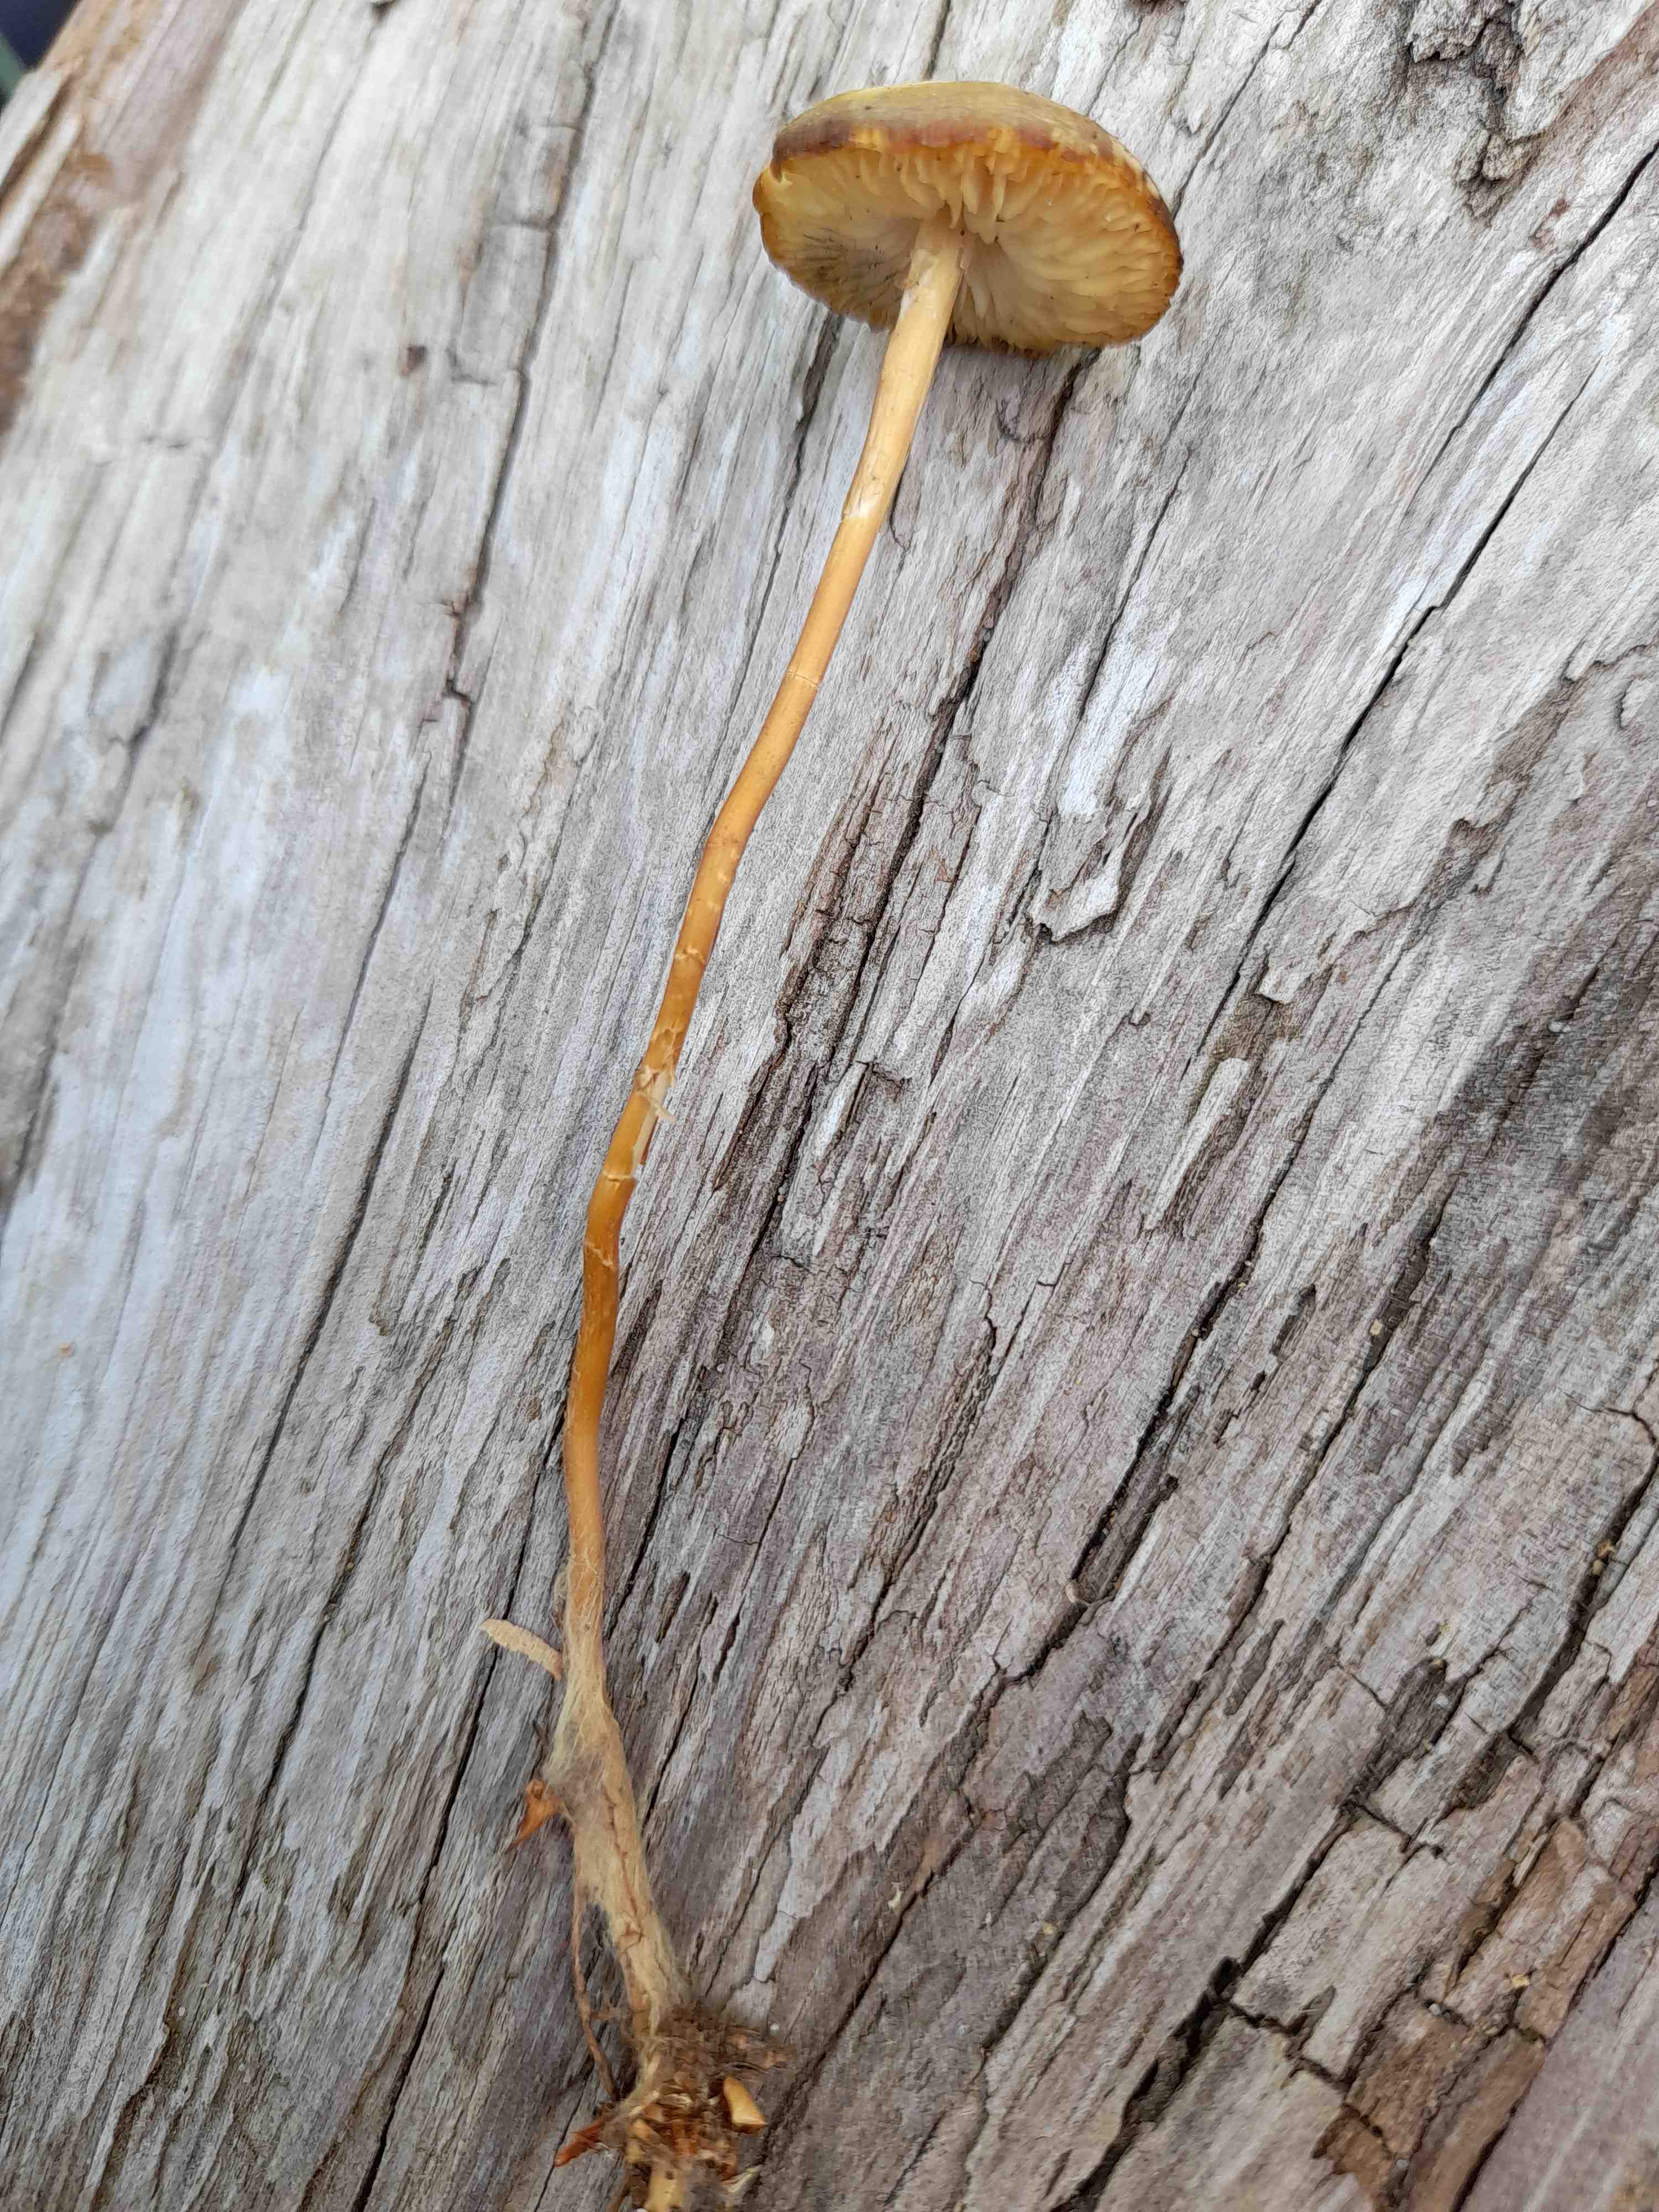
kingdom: Fungi
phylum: Basidiomycota
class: Agaricomycetes
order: Agaricales
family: Physalacriaceae
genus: Hymenopellis
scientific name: Hymenopellis radicata
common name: almindelig pælerodshat
